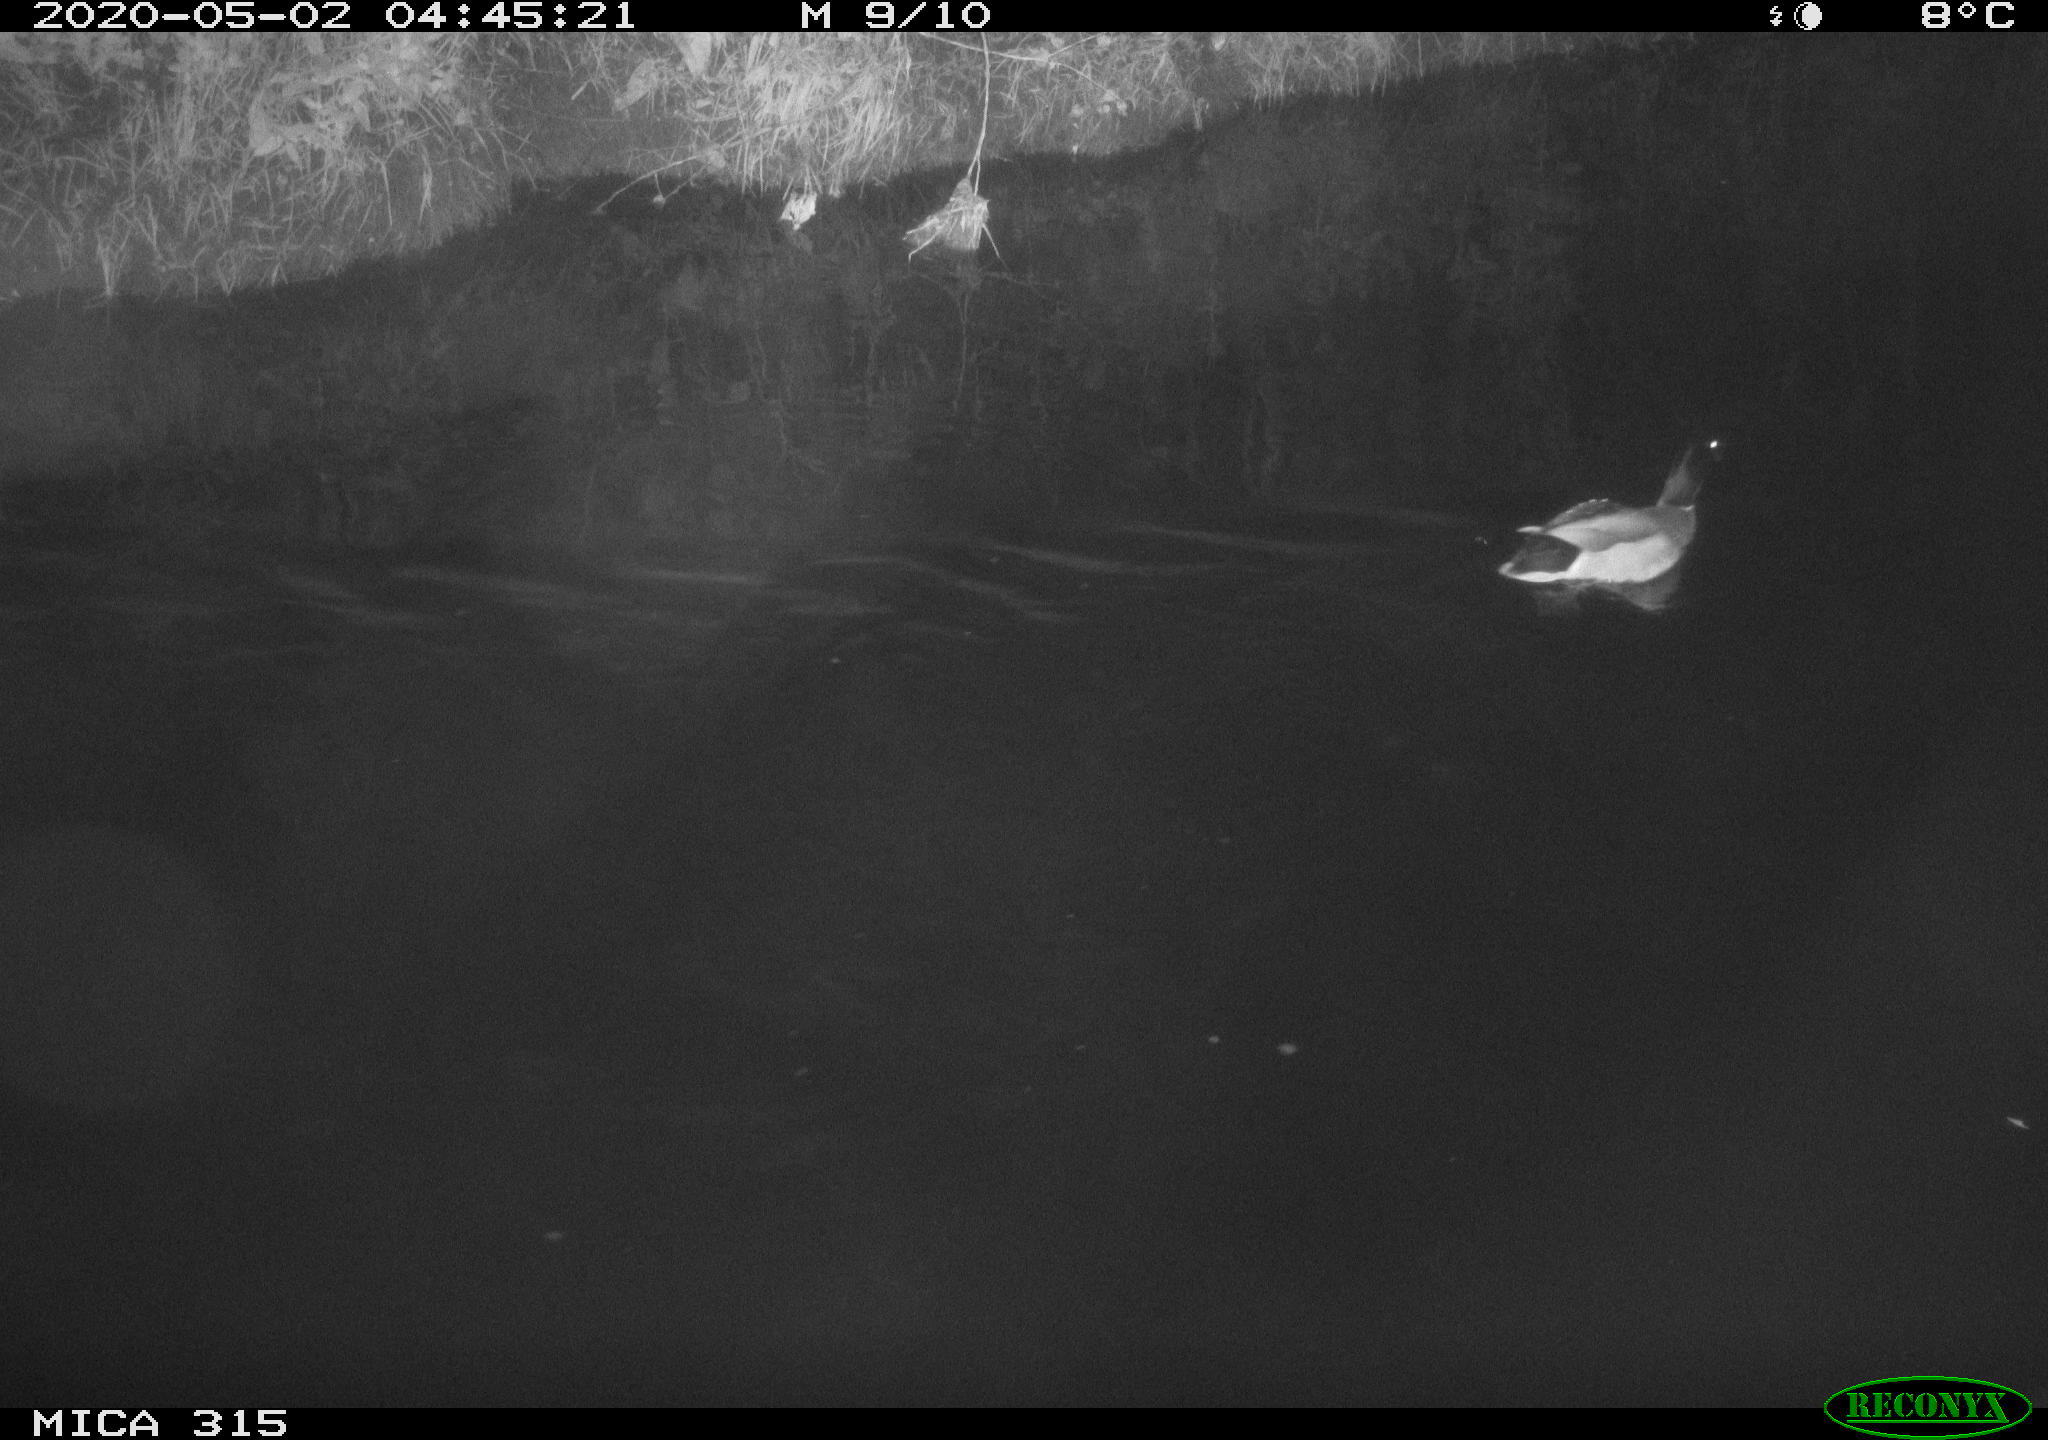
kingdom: Animalia
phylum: Chordata
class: Aves
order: Anseriformes
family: Anatidae
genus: Anas
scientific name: Anas platyrhynchos
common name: Mallard
